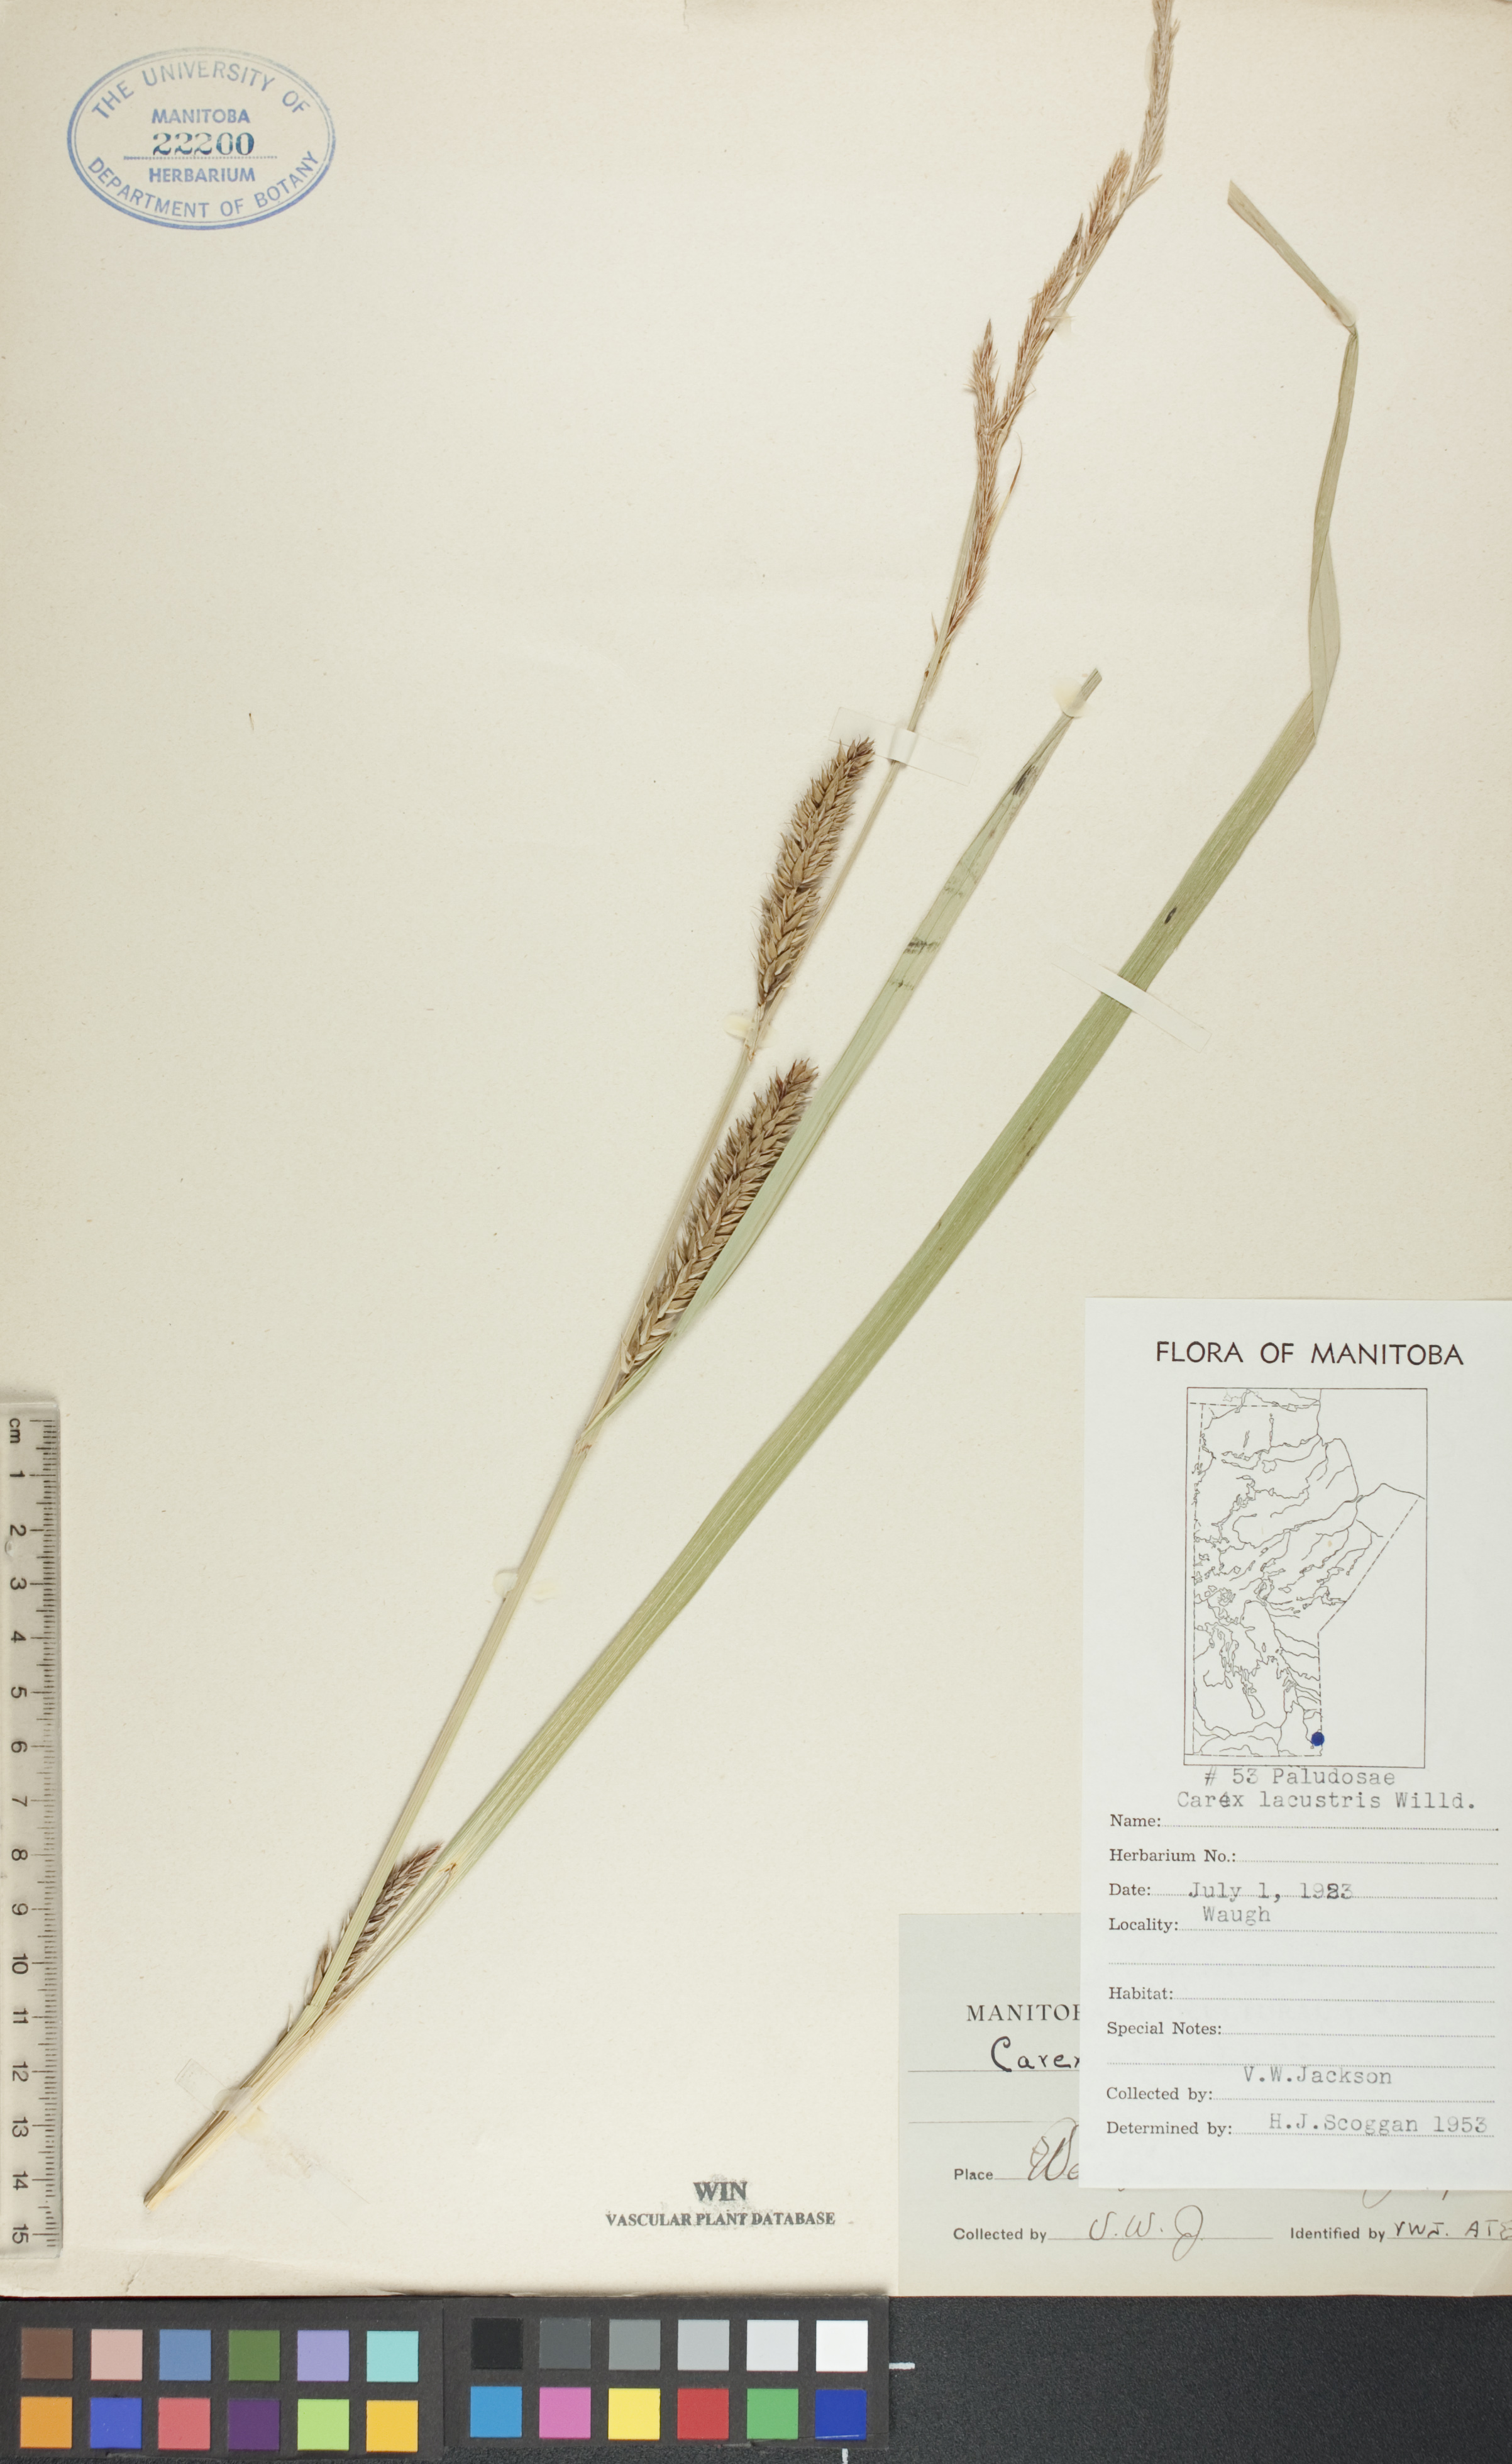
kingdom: Plantae
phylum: Tracheophyta
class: Liliopsida
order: Poales
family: Cyperaceae
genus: Carex
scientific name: Carex lacustris
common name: Common lake sedge
